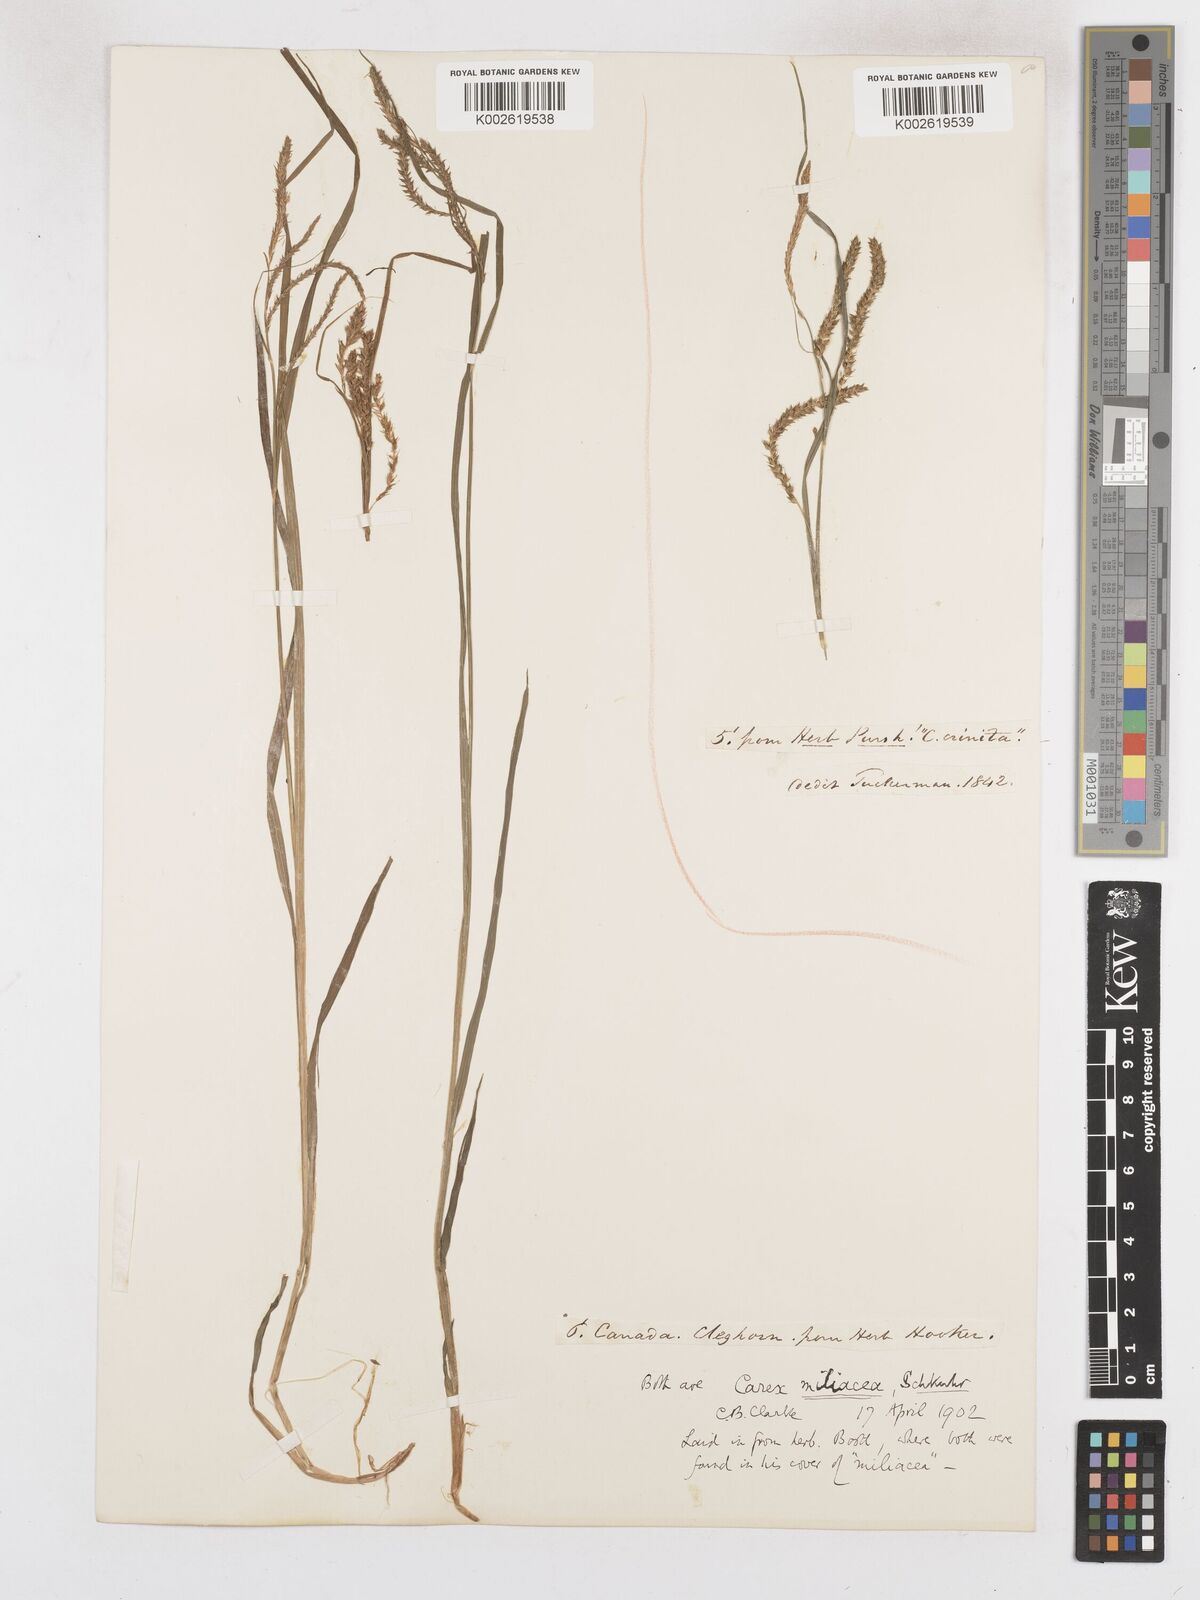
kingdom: Plantae
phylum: Tracheophyta
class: Liliopsida
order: Poales
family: Cyperaceae
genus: Carex
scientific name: Carex prasina
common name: Drooping sedge
